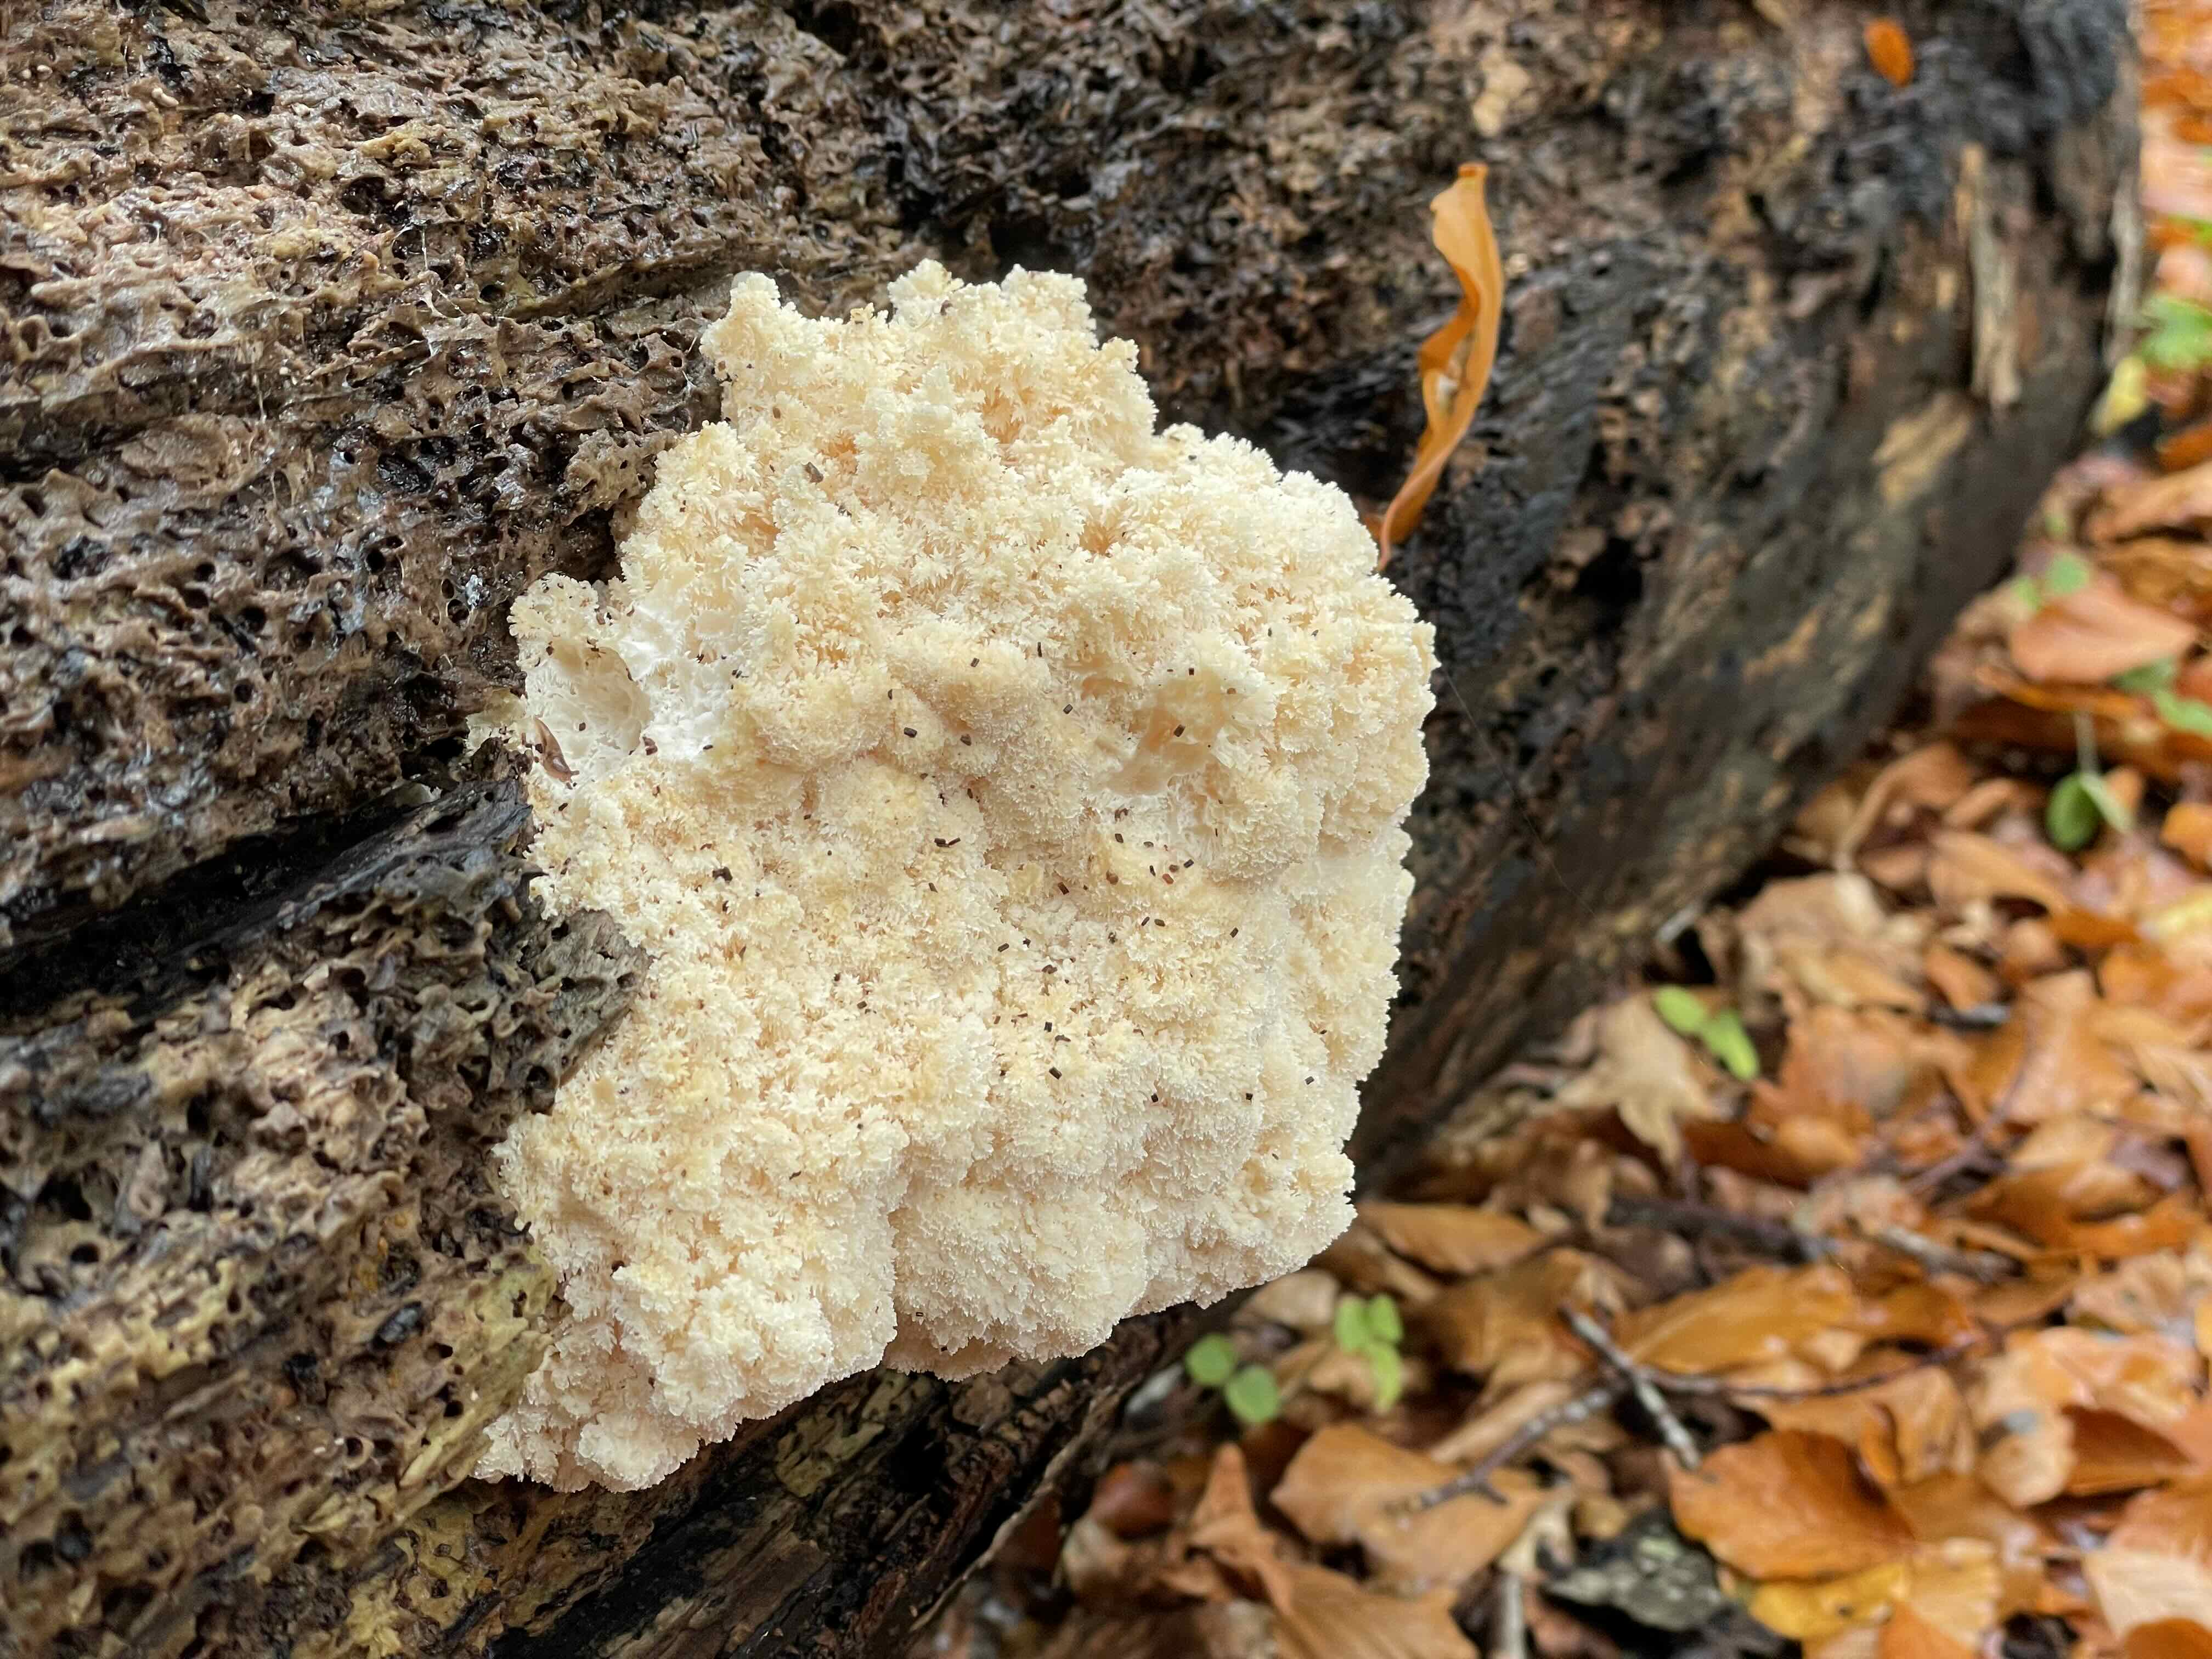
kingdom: Fungi
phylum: Basidiomycota
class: Agaricomycetes
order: Russulales
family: Hericiaceae
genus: Hericium
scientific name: Hericium coralloides
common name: koralpigsvamp
